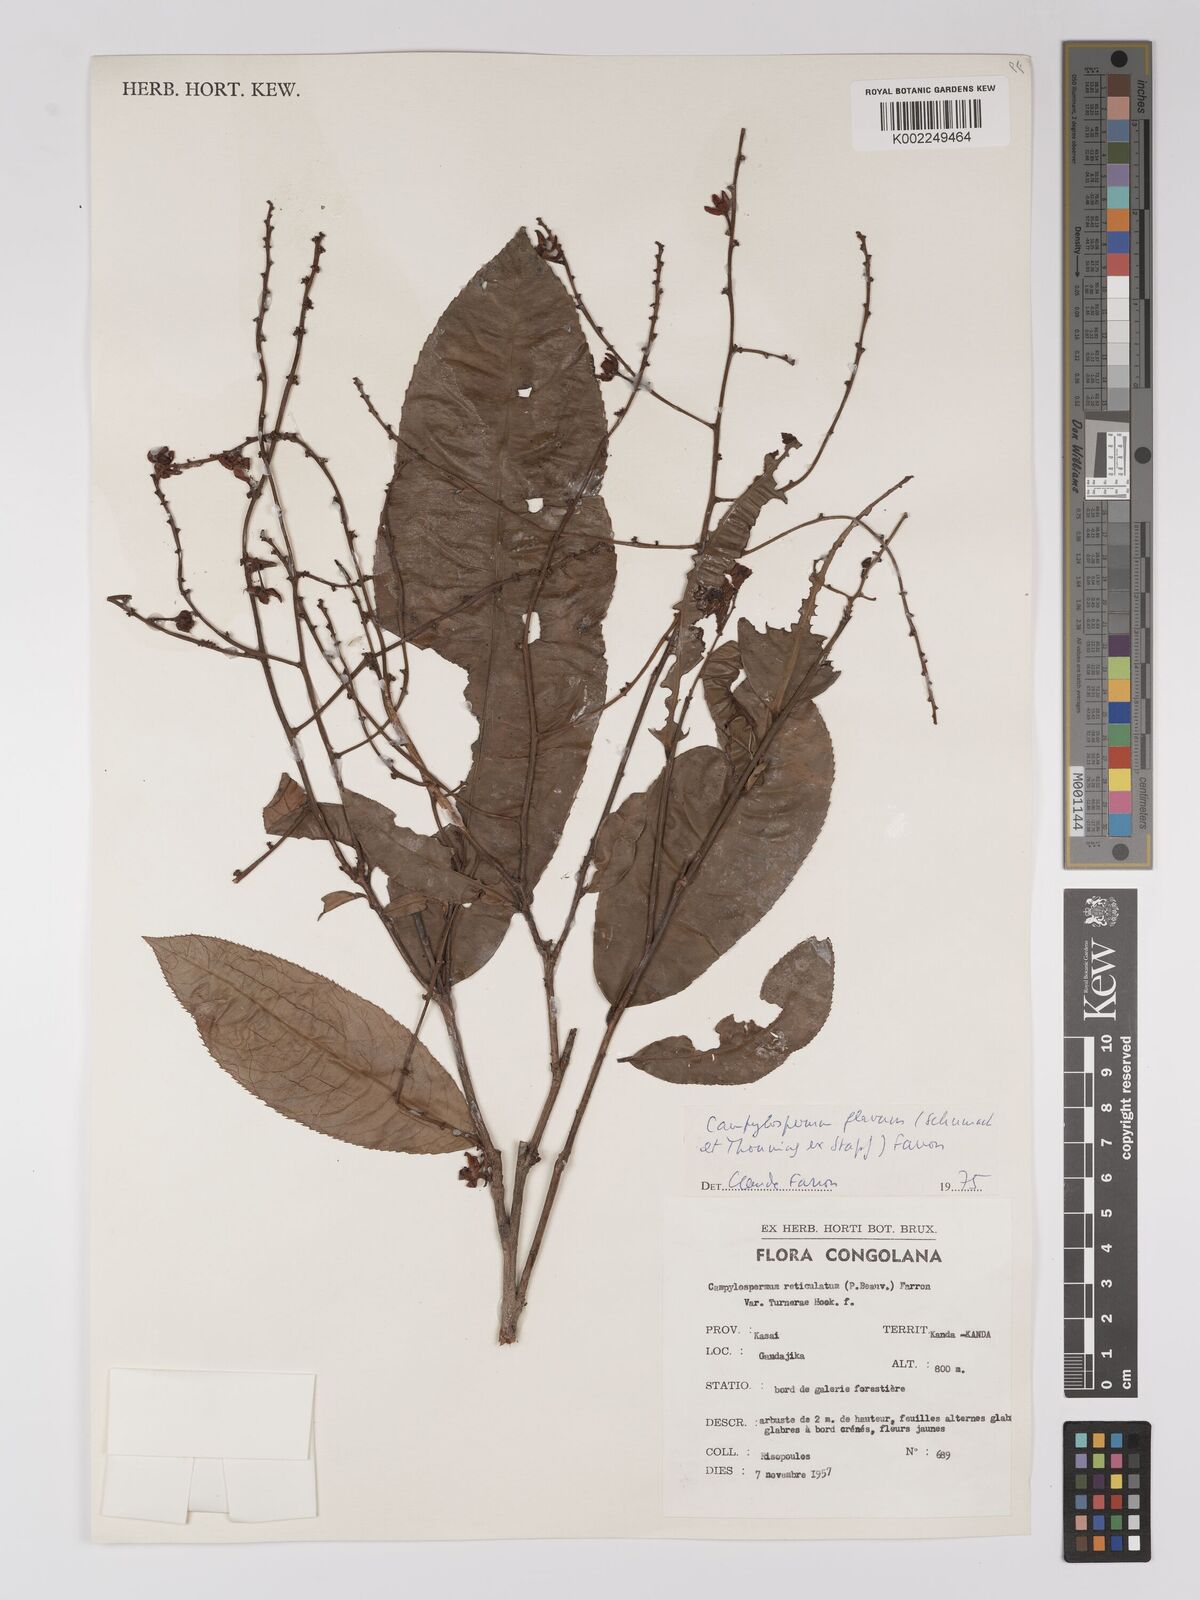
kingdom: Plantae
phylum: Tracheophyta
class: Magnoliopsida
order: Malpighiales
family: Ochnaceae
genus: Campylospermum
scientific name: Campylospermum flavum
